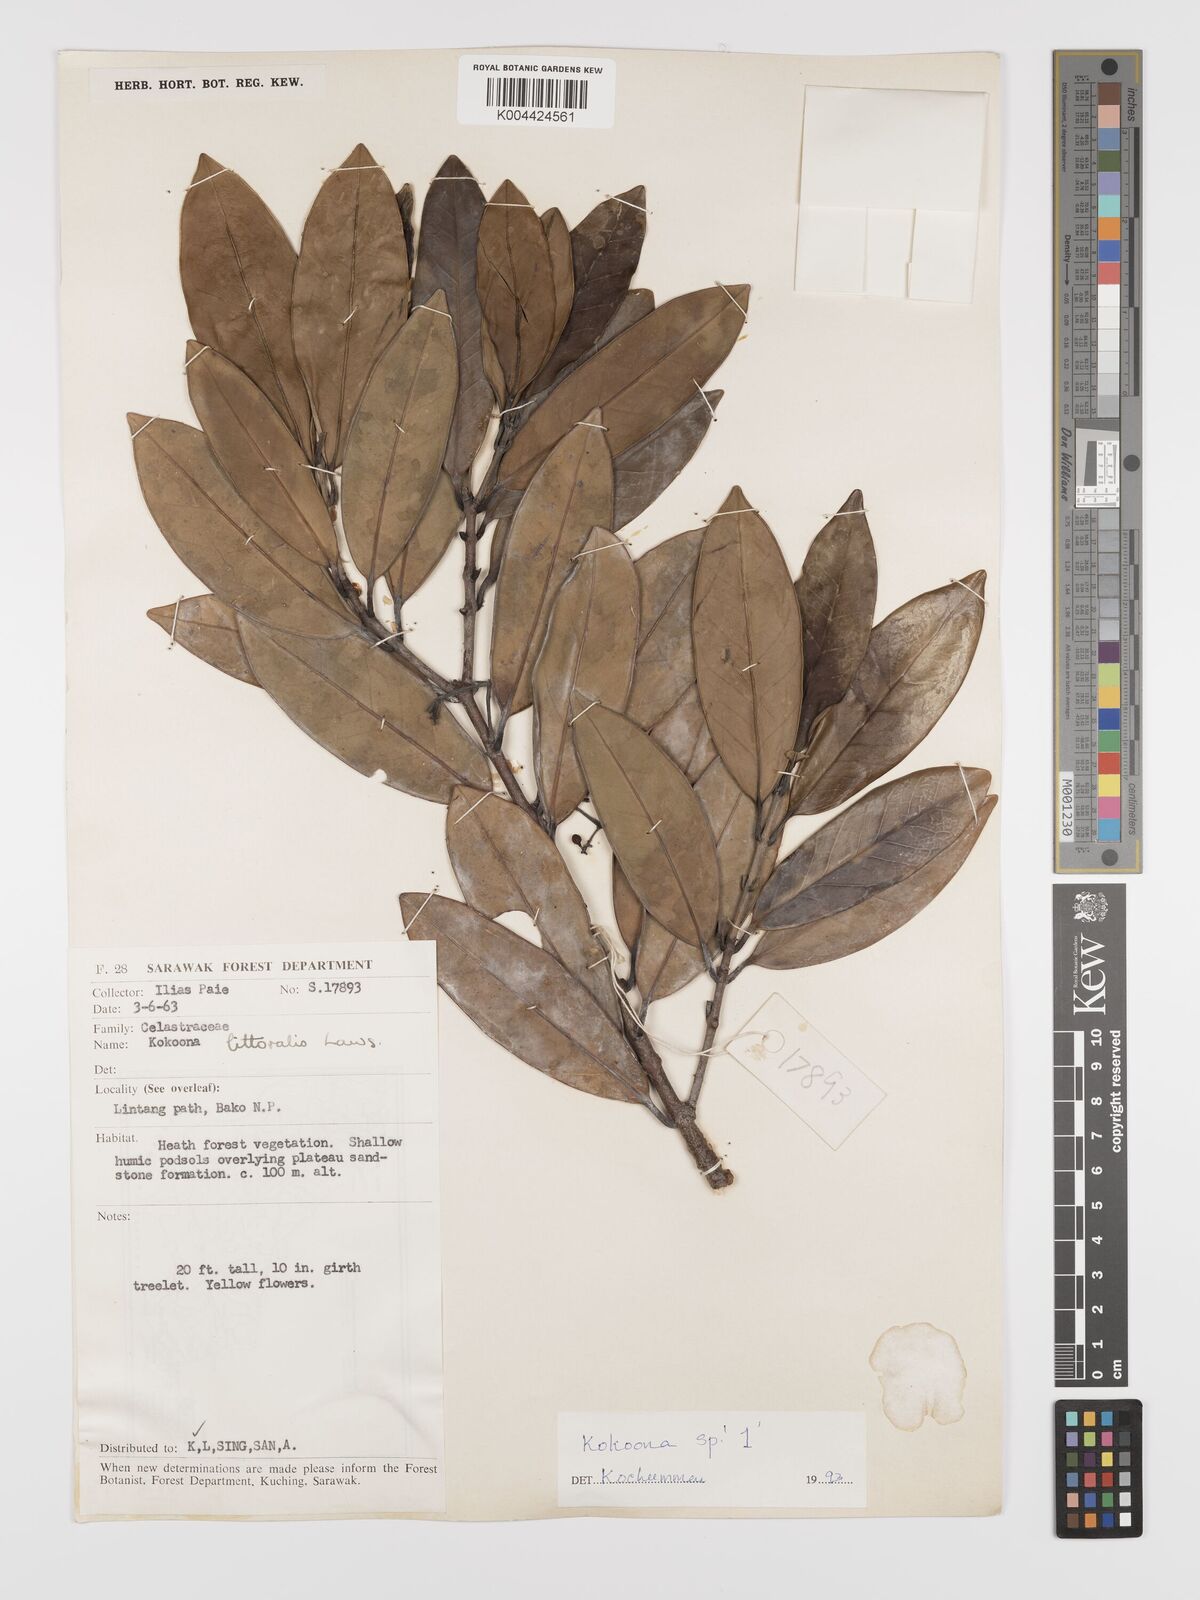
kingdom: Plantae
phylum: Tracheophyta
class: Magnoliopsida
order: Celastrales
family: Celastraceae
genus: Kokoona
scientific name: Kokoona littoralis
